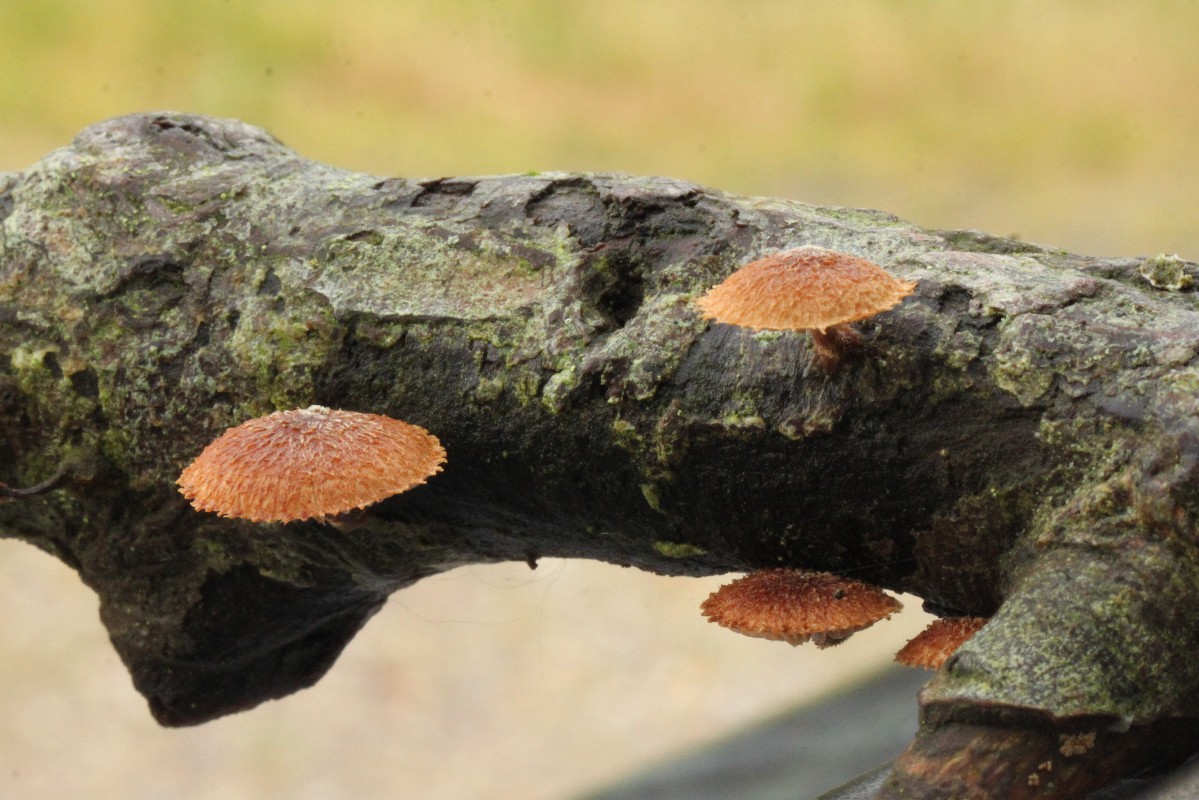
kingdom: Fungi
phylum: Basidiomycota
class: Agaricomycetes
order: Agaricales
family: Tubariaceae
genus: Phaeomarasmius
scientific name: Phaeomarasmius erinaceus
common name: spidsskælhat
